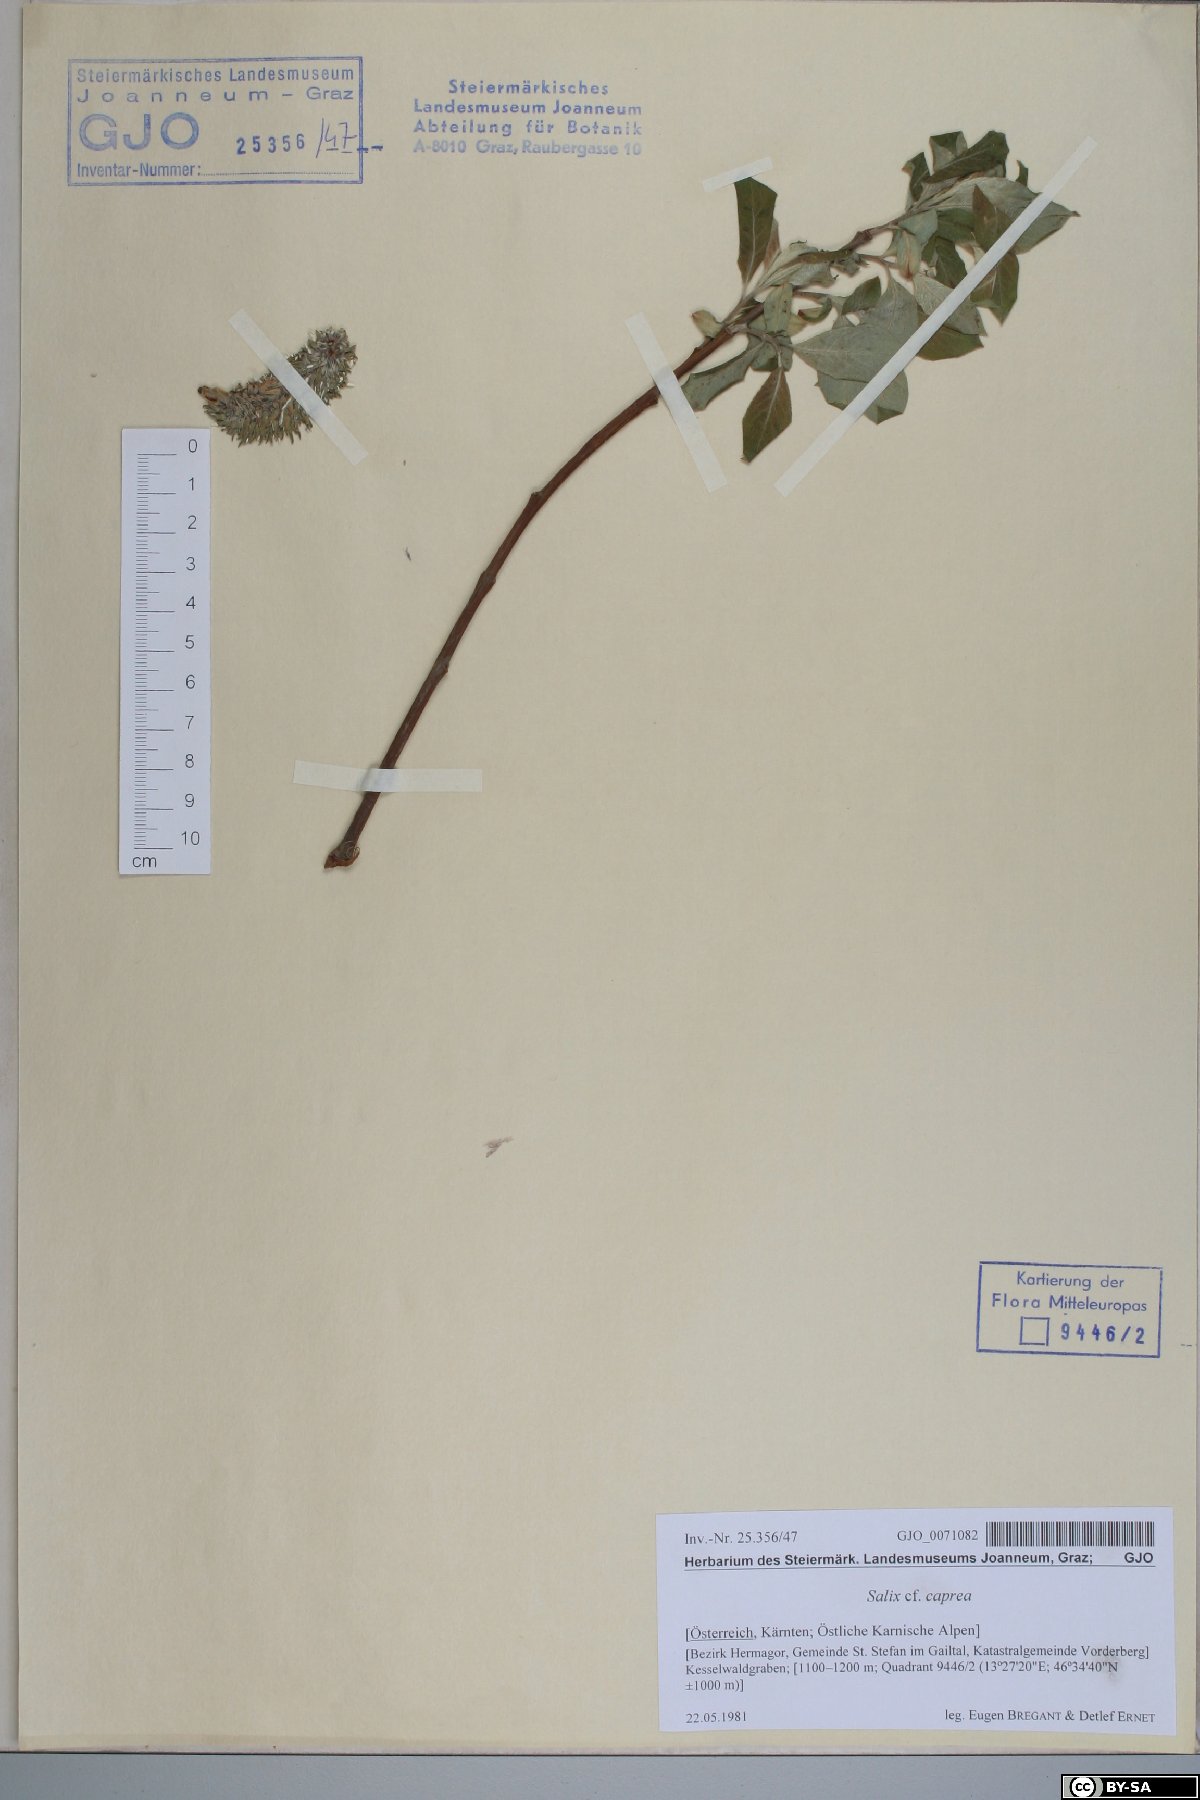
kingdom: Plantae
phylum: Tracheophyta
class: Magnoliopsida
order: Malpighiales
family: Salicaceae
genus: Salix
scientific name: Salix caprea
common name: Goat willow
